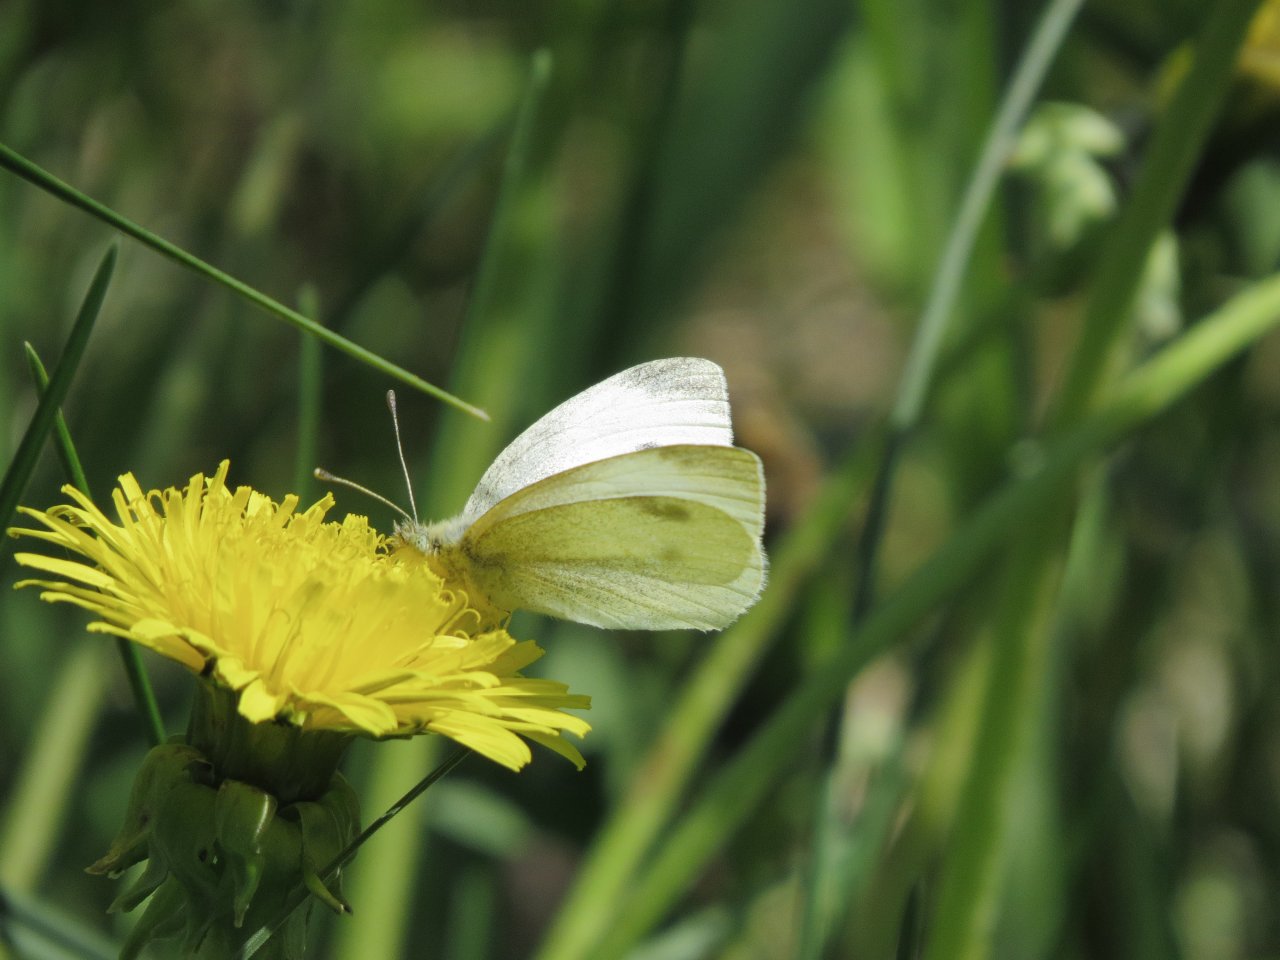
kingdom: Animalia
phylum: Arthropoda
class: Insecta
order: Lepidoptera
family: Pieridae
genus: Pieris
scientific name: Pieris rapae
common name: Cabbage White
